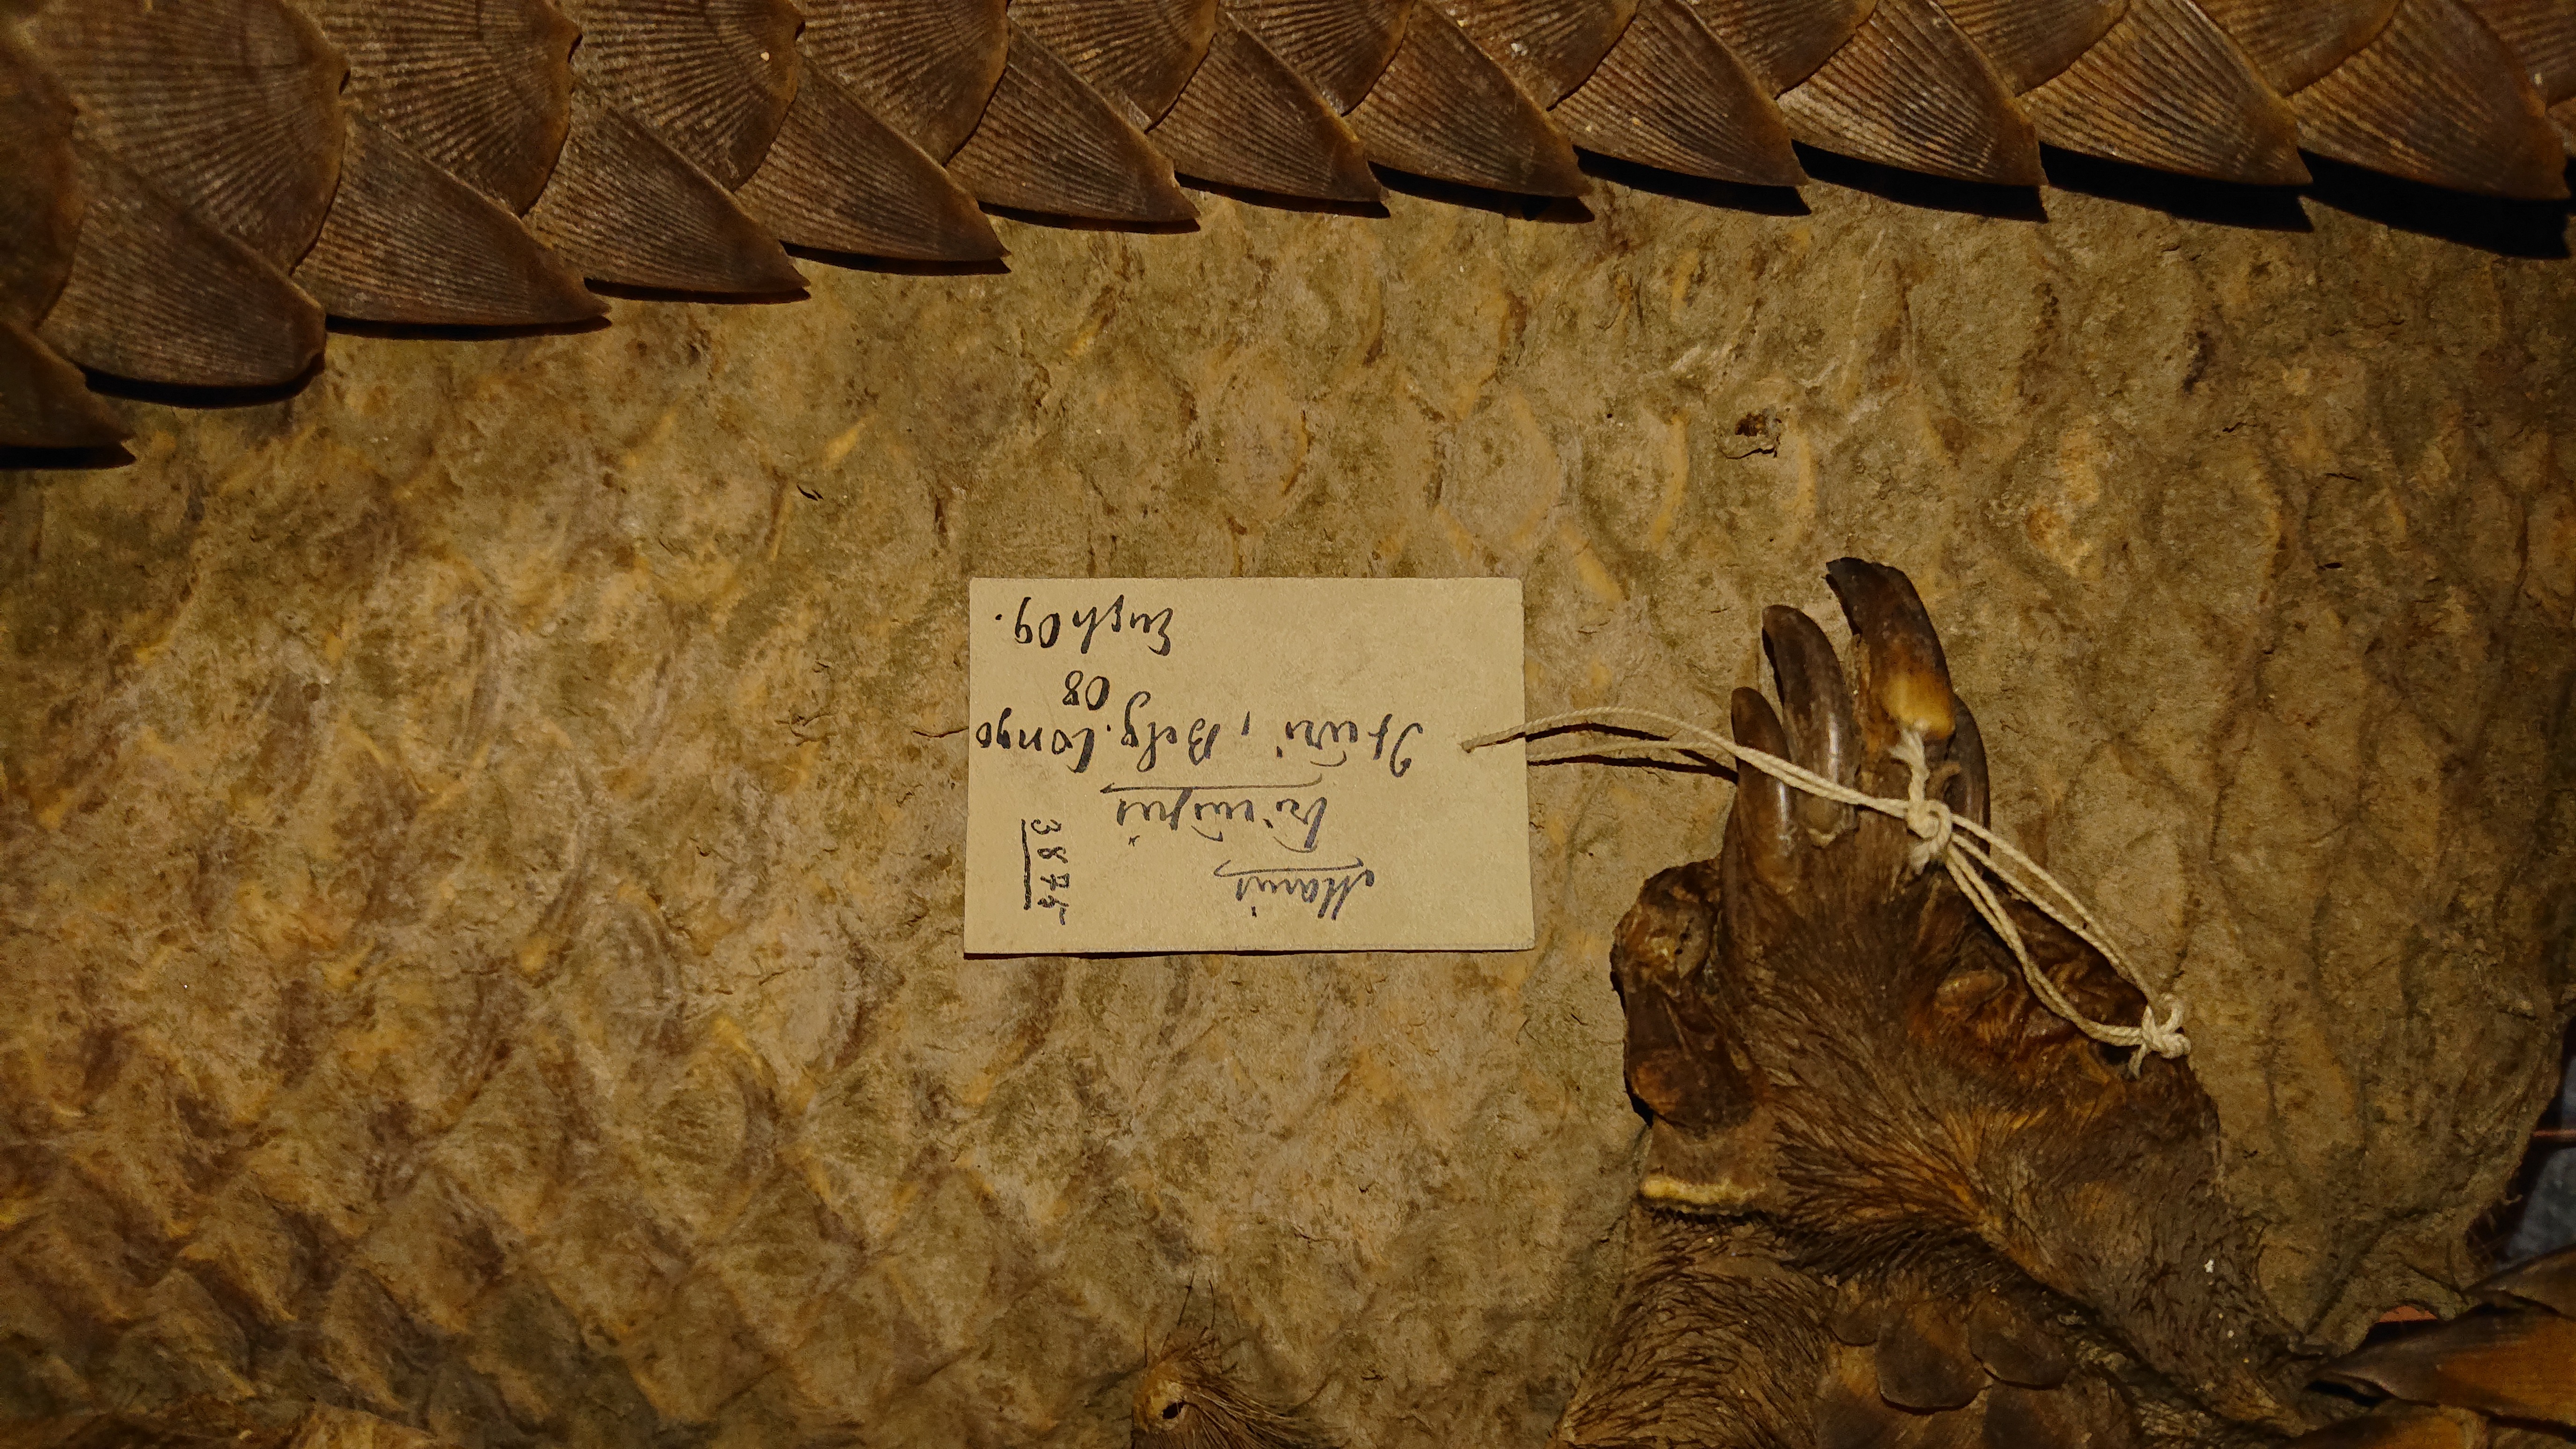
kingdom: Animalia
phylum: Chordata
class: Mammalia
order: Pholidota
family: Manidae
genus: Manis
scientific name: Manis tricuspis
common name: Tree pangolin
